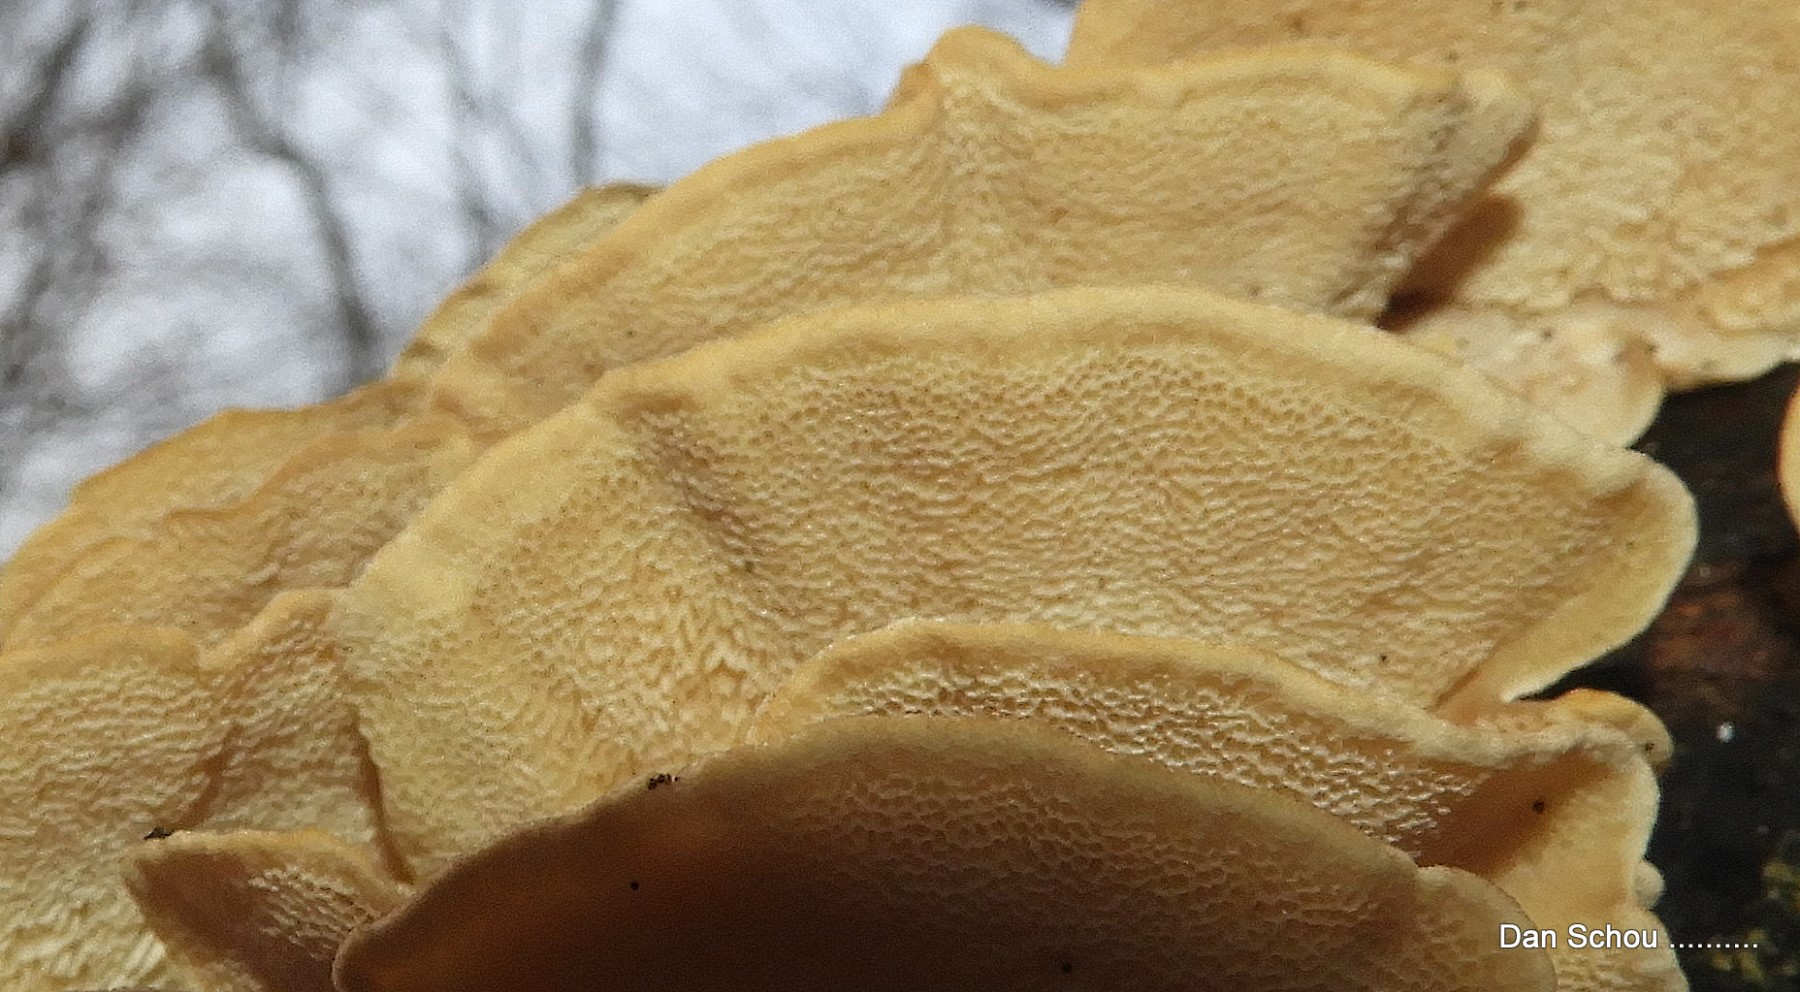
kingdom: Fungi
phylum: Basidiomycota
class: Agaricomycetes
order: Polyporales
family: Polyporaceae
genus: Trametes
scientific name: Trametes versicolor
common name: broget læderporesvamp
